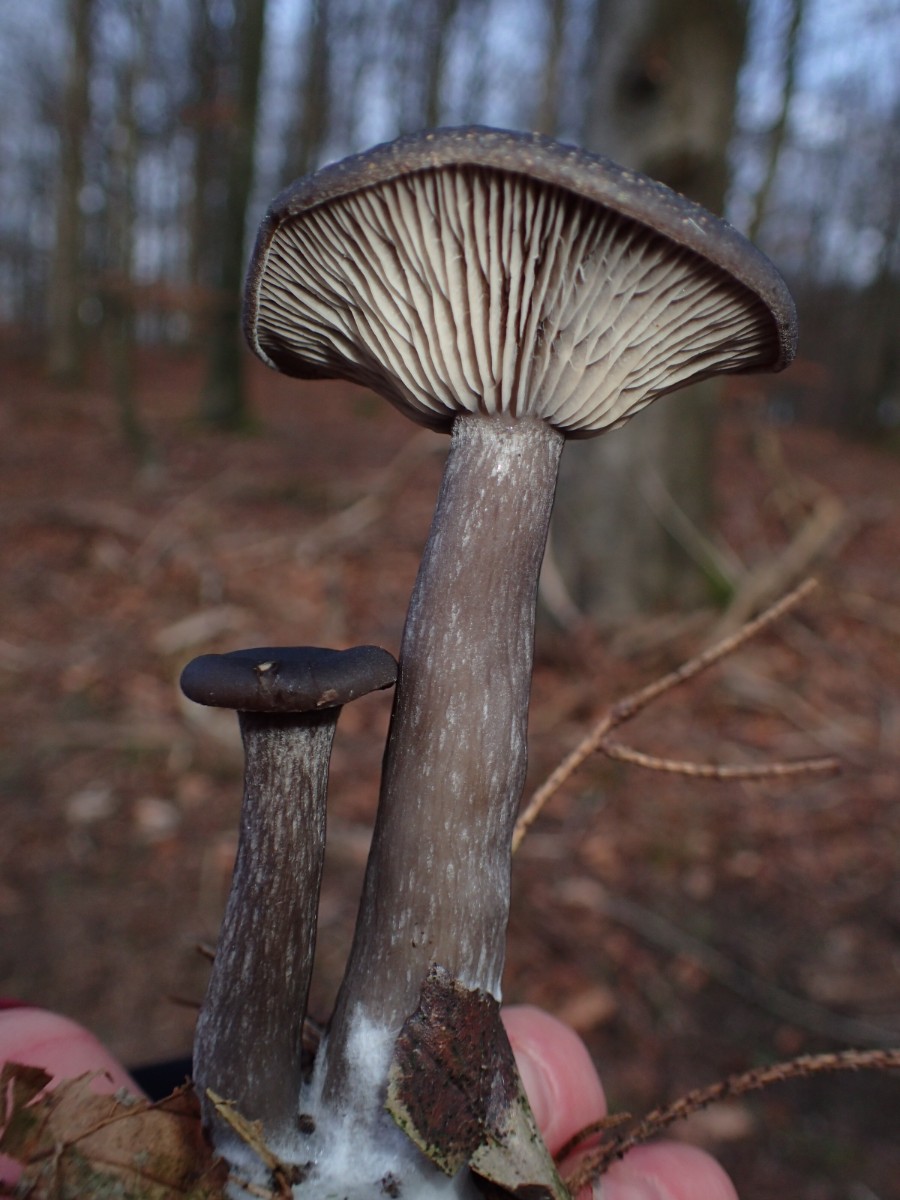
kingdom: Fungi
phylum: Basidiomycota
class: Agaricomycetes
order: Agaricales
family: Pseudoclitocybaceae
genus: Pseudoclitocybe
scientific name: Pseudoclitocybe cyathiformis
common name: almindelig bægertragthat
